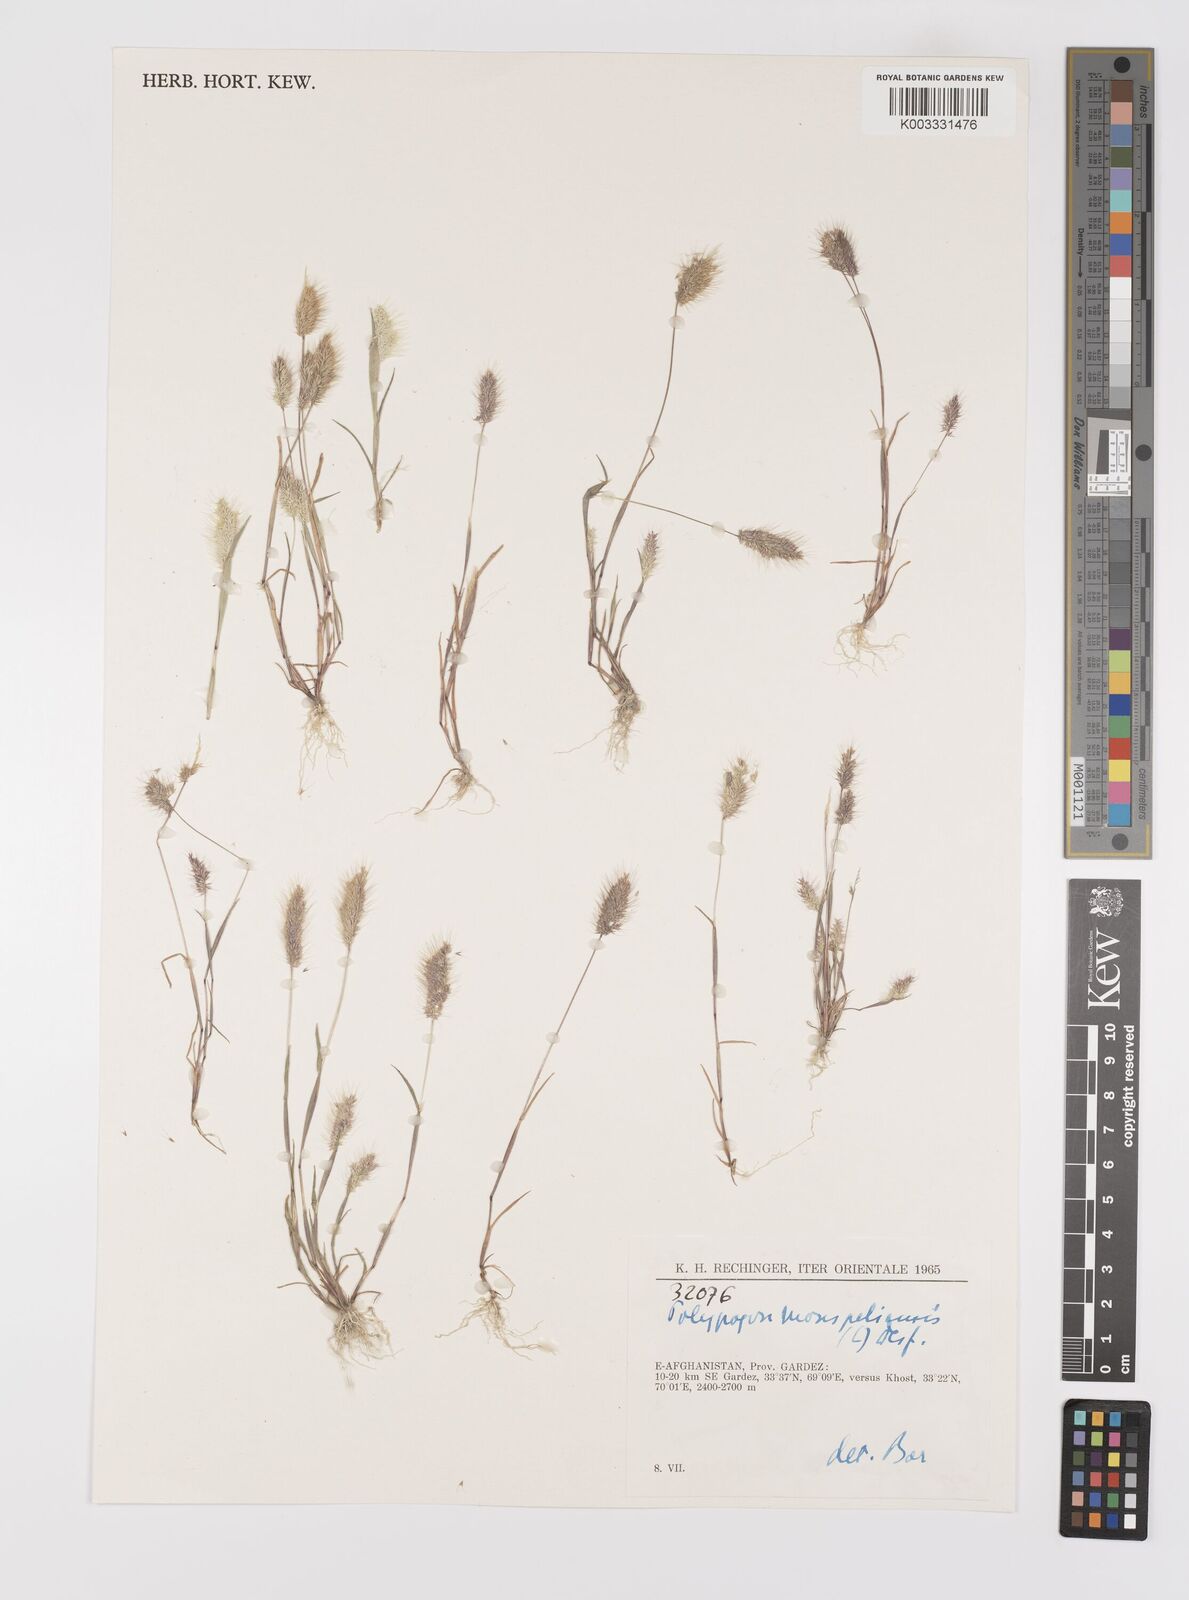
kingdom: Plantae
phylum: Tracheophyta
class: Liliopsida
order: Poales
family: Poaceae
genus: Polypogon
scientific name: Polypogon maritimus
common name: Mediterranean rabbitsfoot grass
